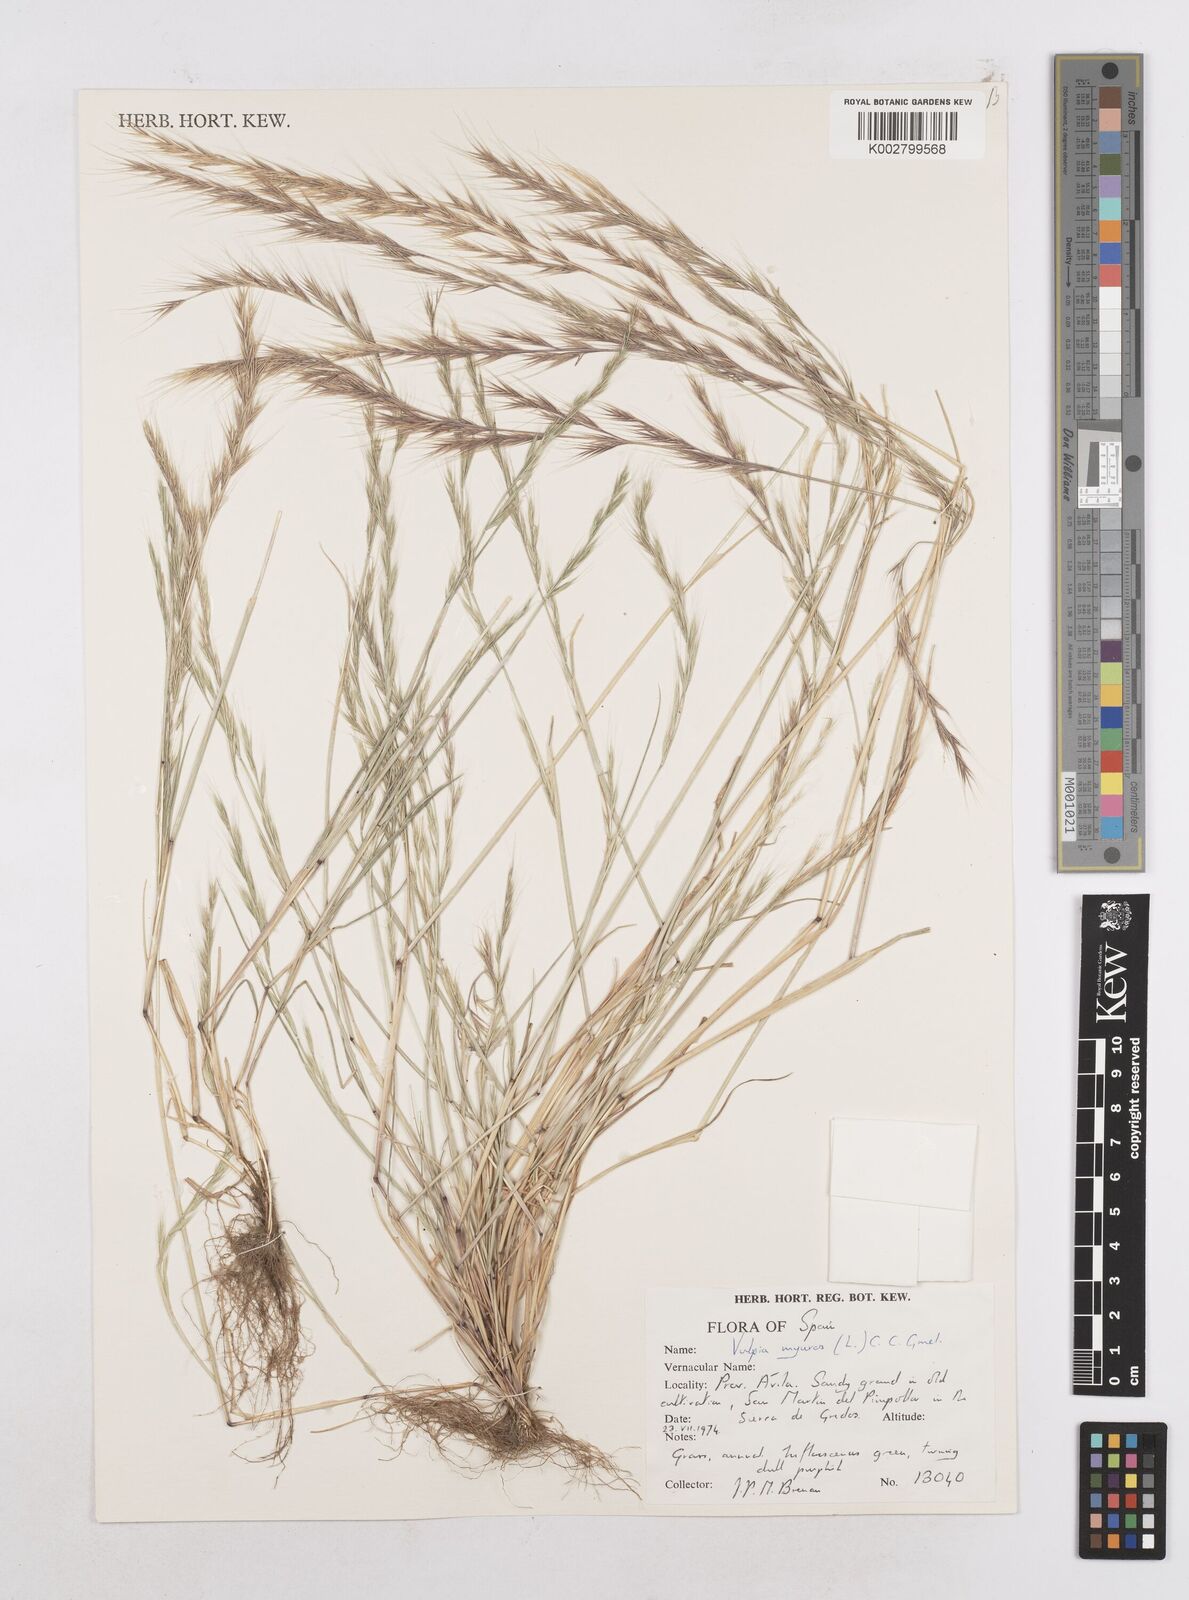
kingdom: Plantae
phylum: Tracheophyta
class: Liliopsida
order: Poales
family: Poaceae
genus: Festuca
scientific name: Festuca myuros
